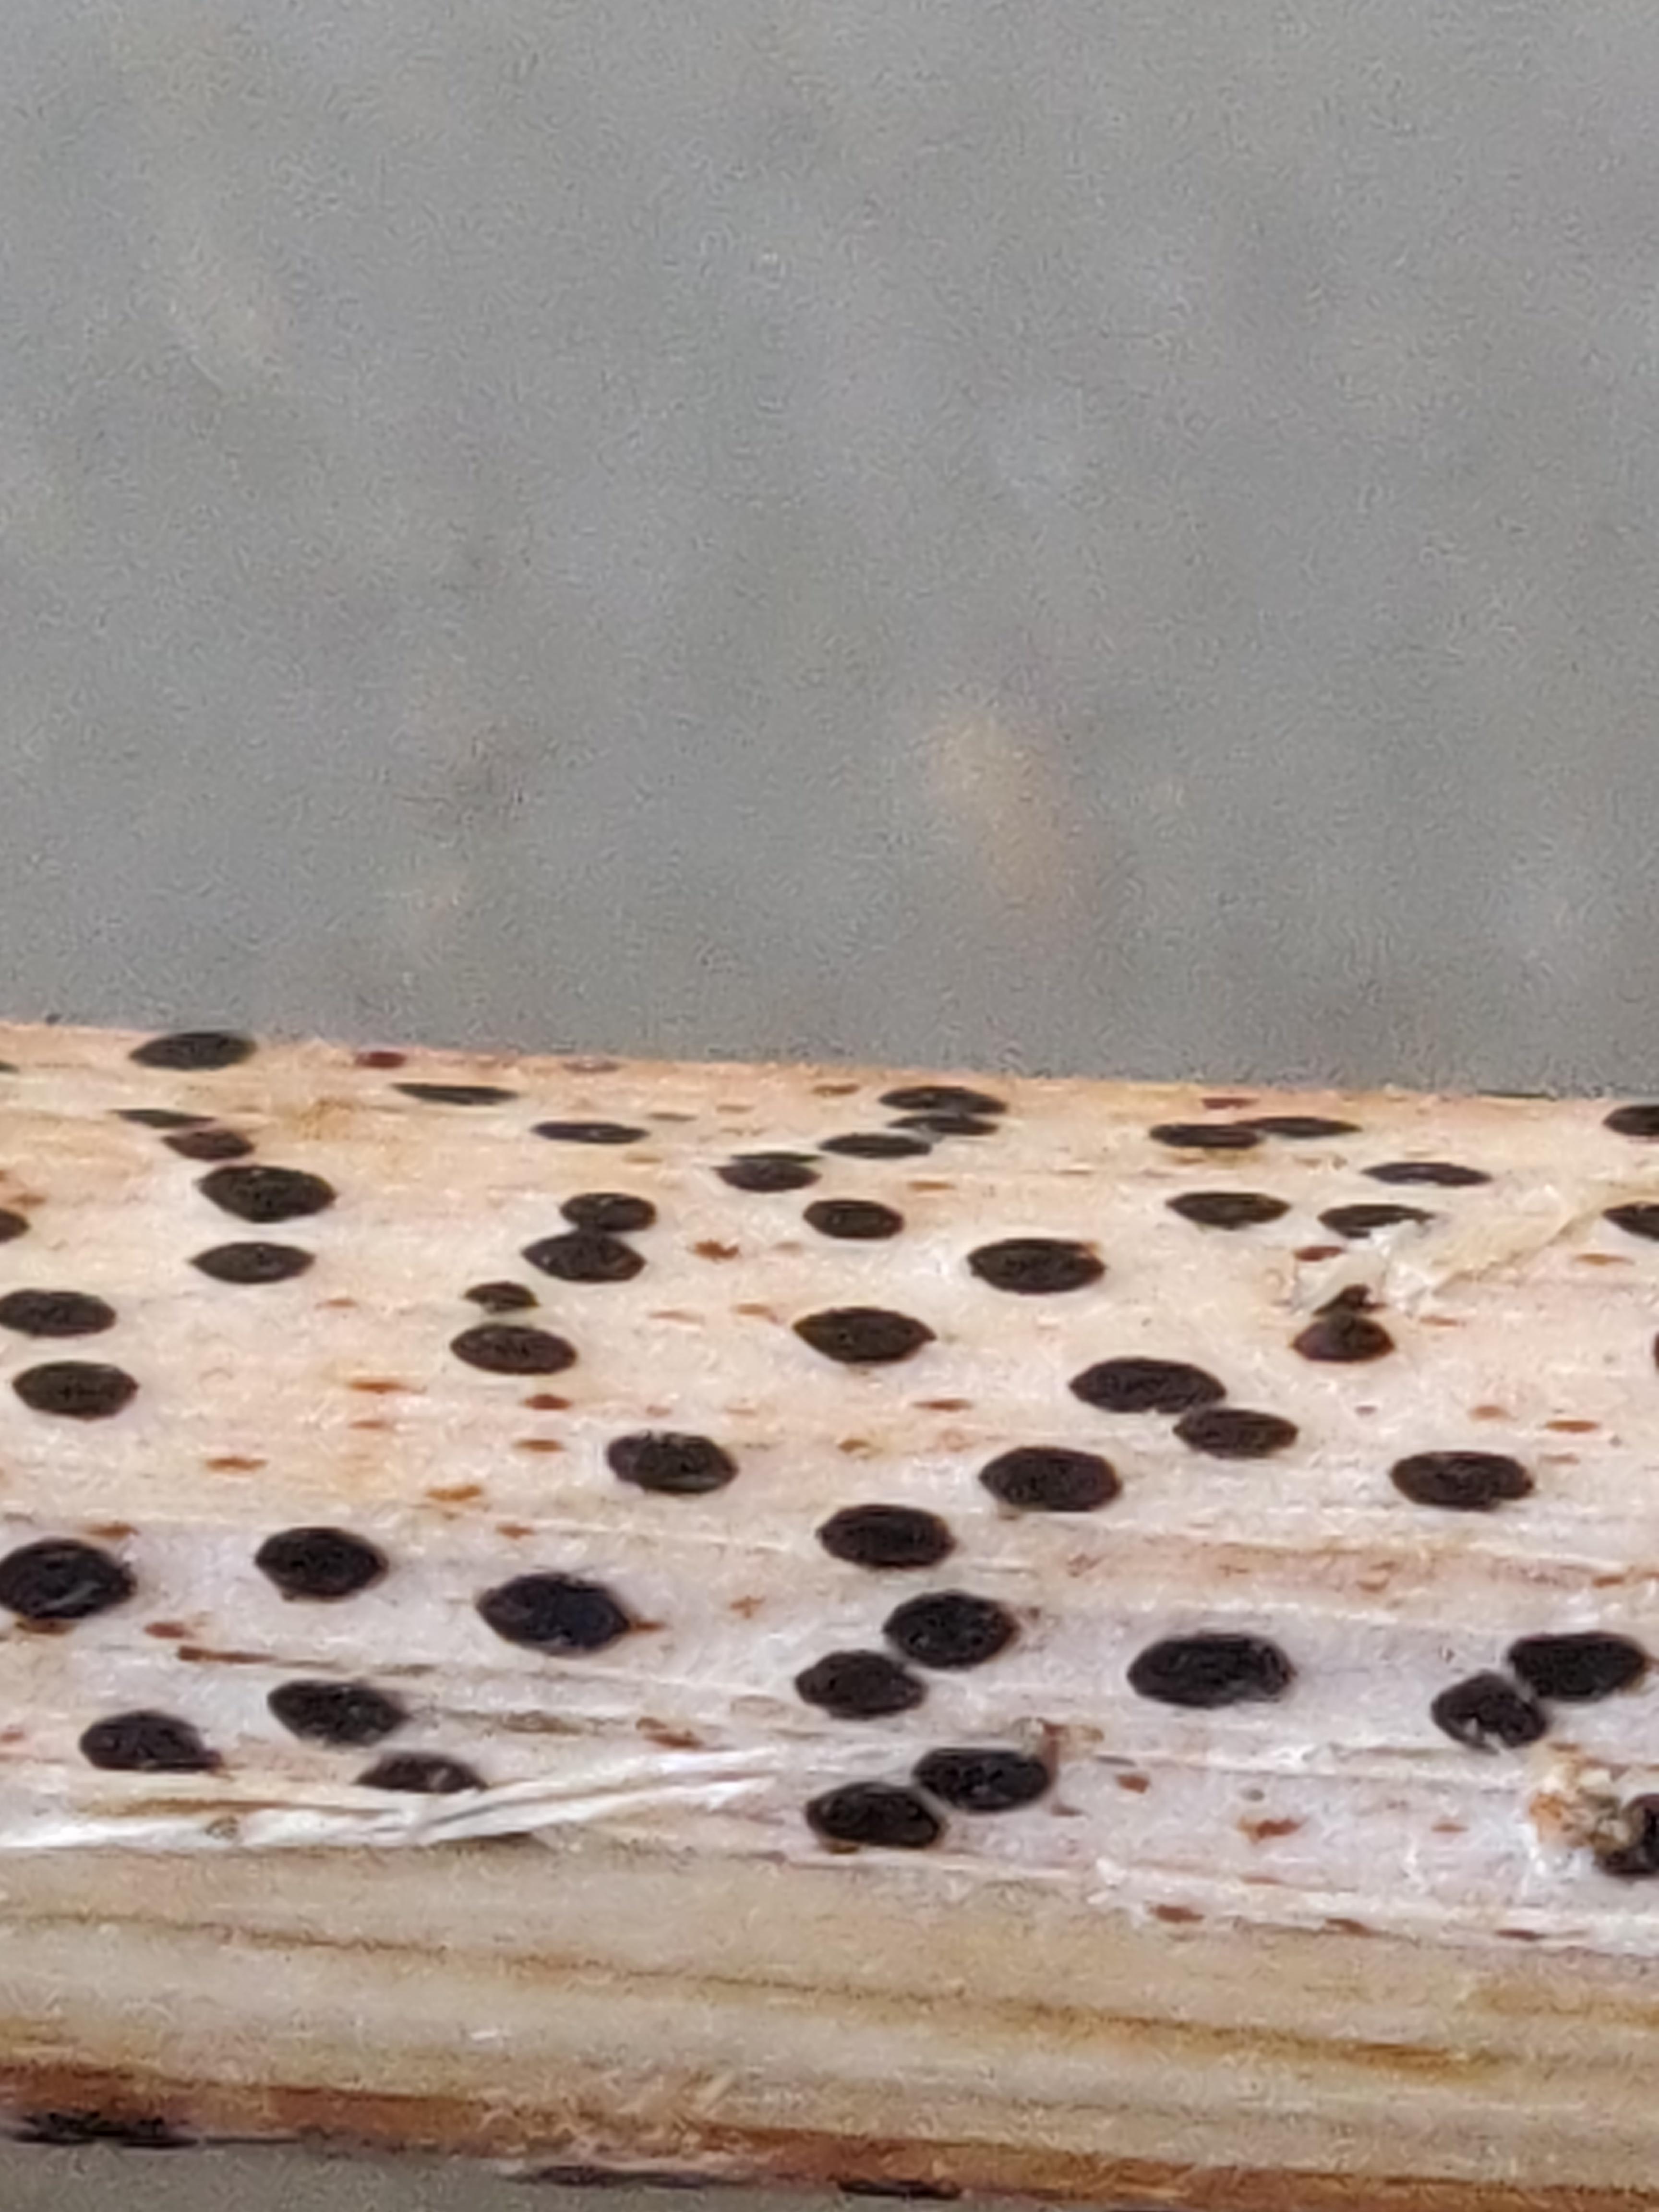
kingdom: Fungi
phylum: Ascomycota
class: Leotiomycetes
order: Rhytismatales
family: Rhytismataceae
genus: Lophodermium
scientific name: Lophodermium paeoniae
